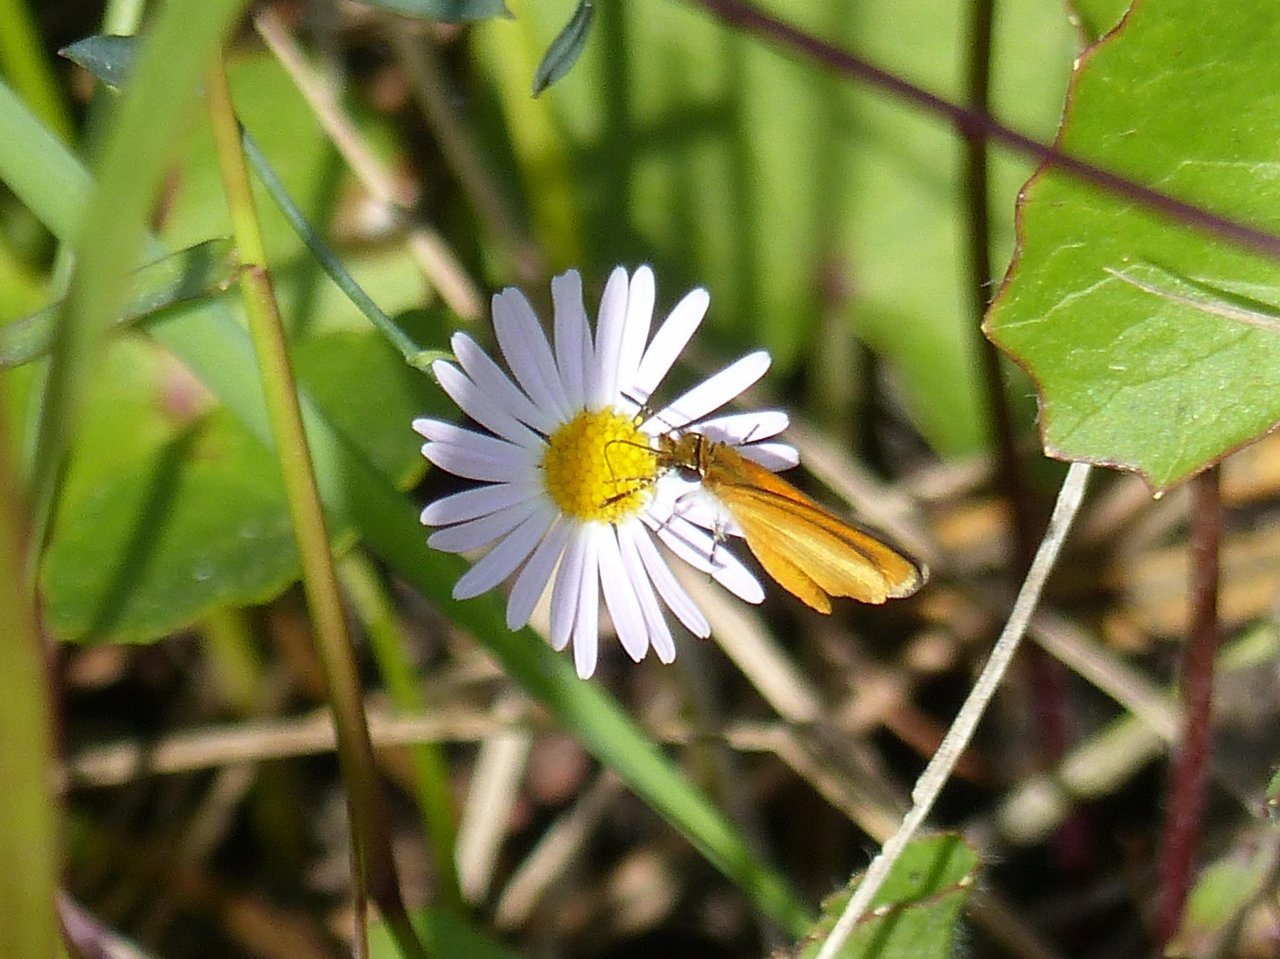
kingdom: Animalia
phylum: Arthropoda
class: Insecta
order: Lepidoptera
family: Hesperiidae
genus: Copaeodes
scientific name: Copaeodes minima
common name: Southern Skipperling
